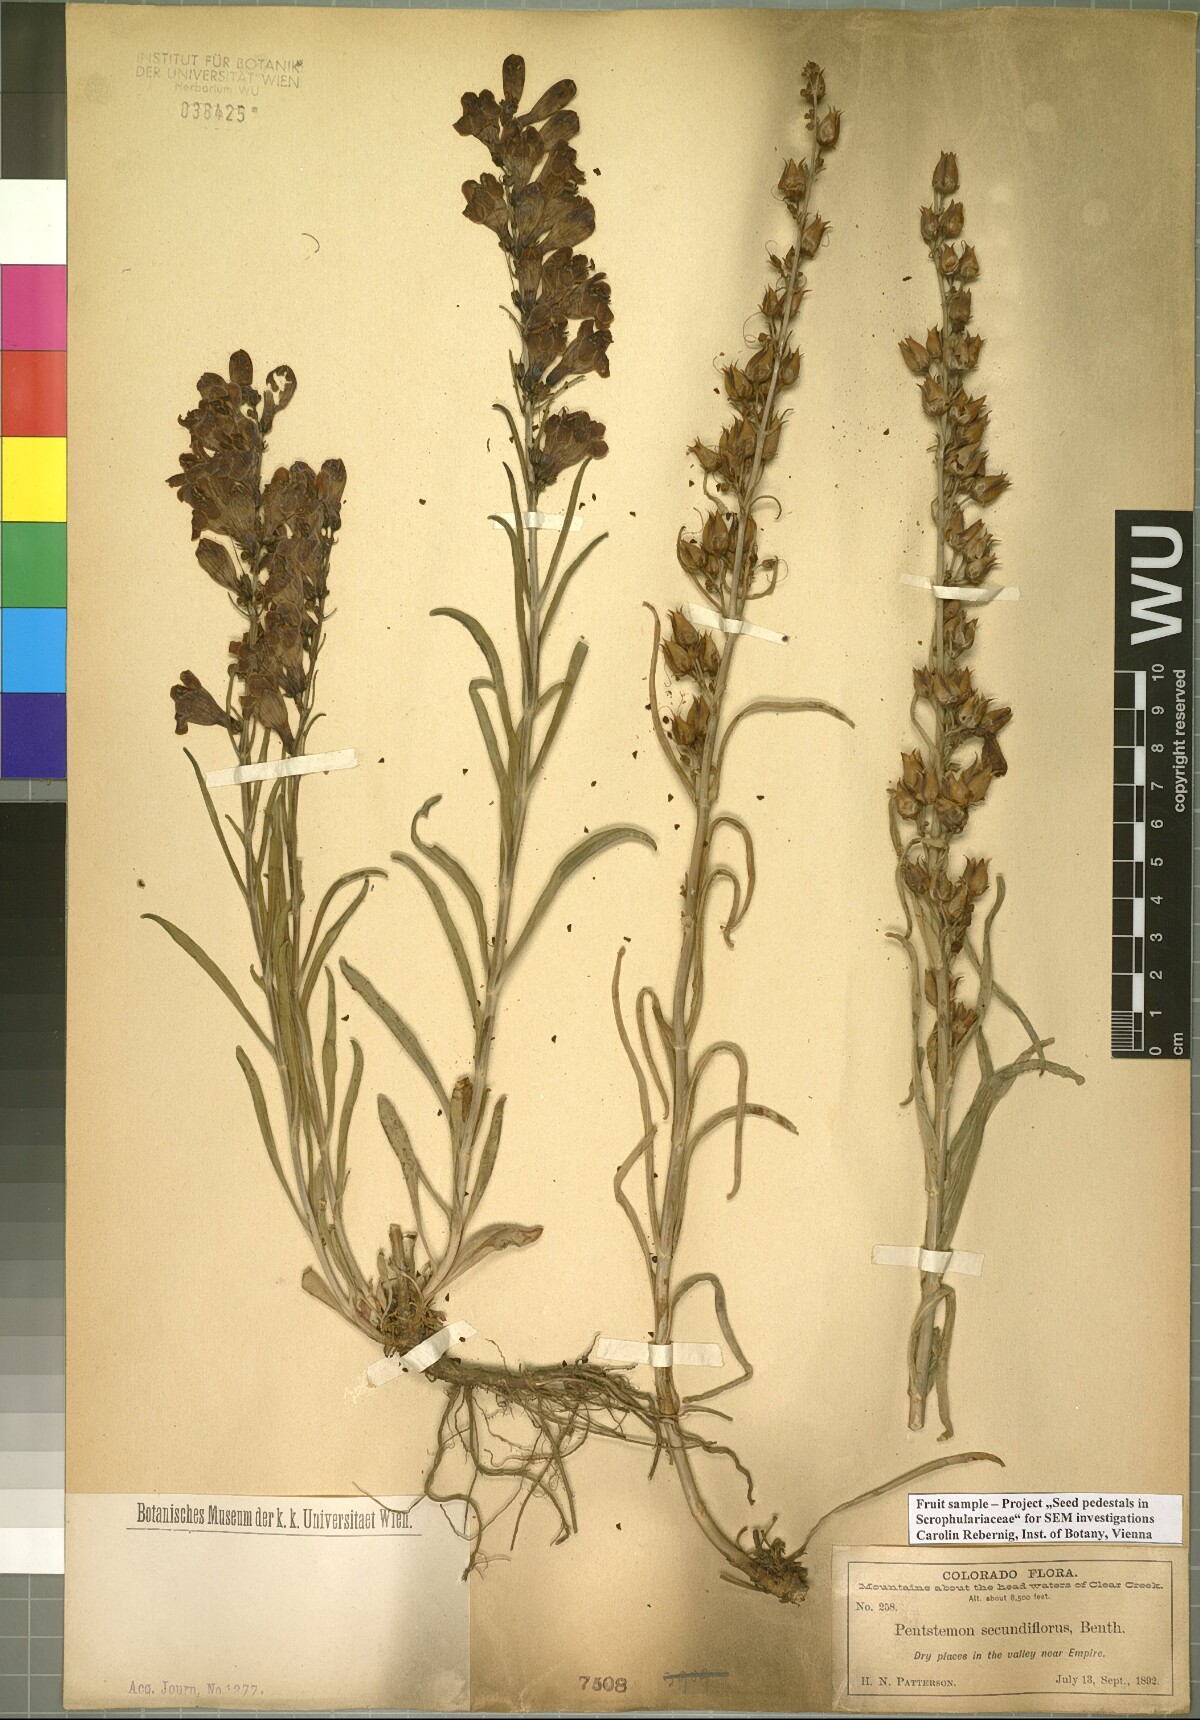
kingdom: Plantae
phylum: Tracheophyta
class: Magnoliopsida
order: Lamiales
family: Plantaginaceae
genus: Penstemon
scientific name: Penstemon secundiflorus
